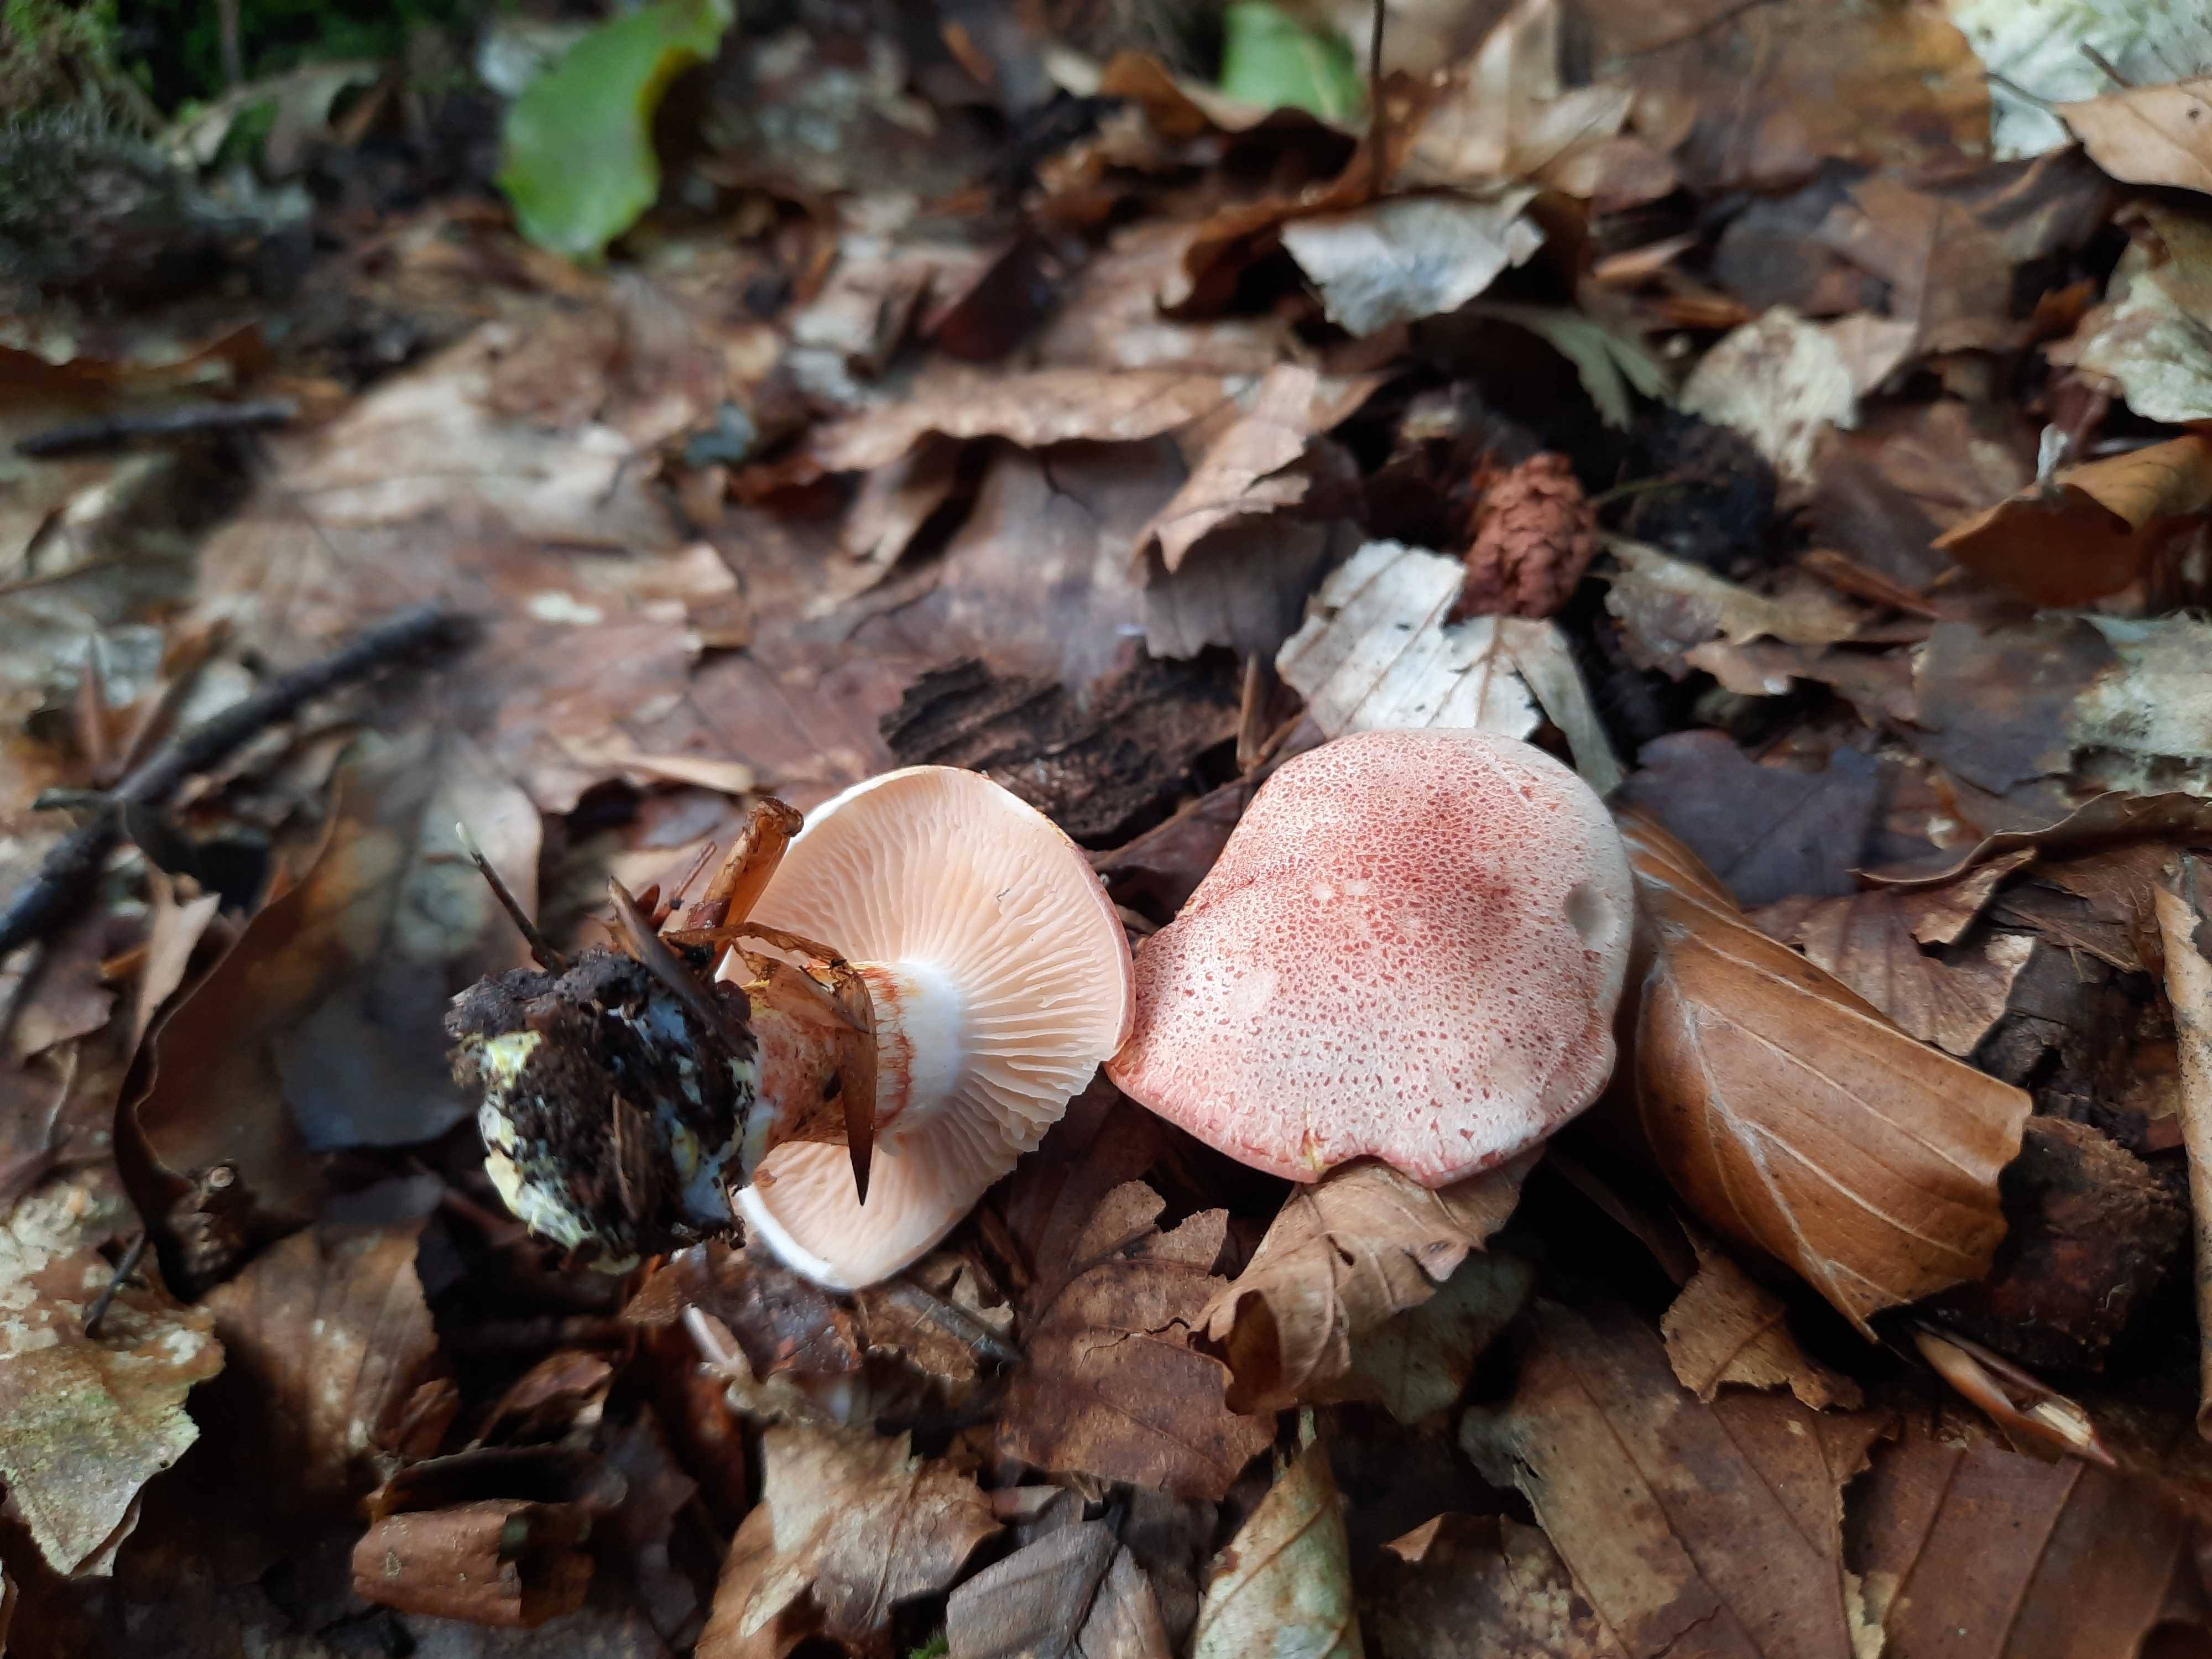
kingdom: Fungi
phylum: Basidiomycota
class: Agaricomycetes
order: Agaricales
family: Cortinariaceae
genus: Cortinarius
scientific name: Cortinarius bolaris
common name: cinnoberskællet slørhat
